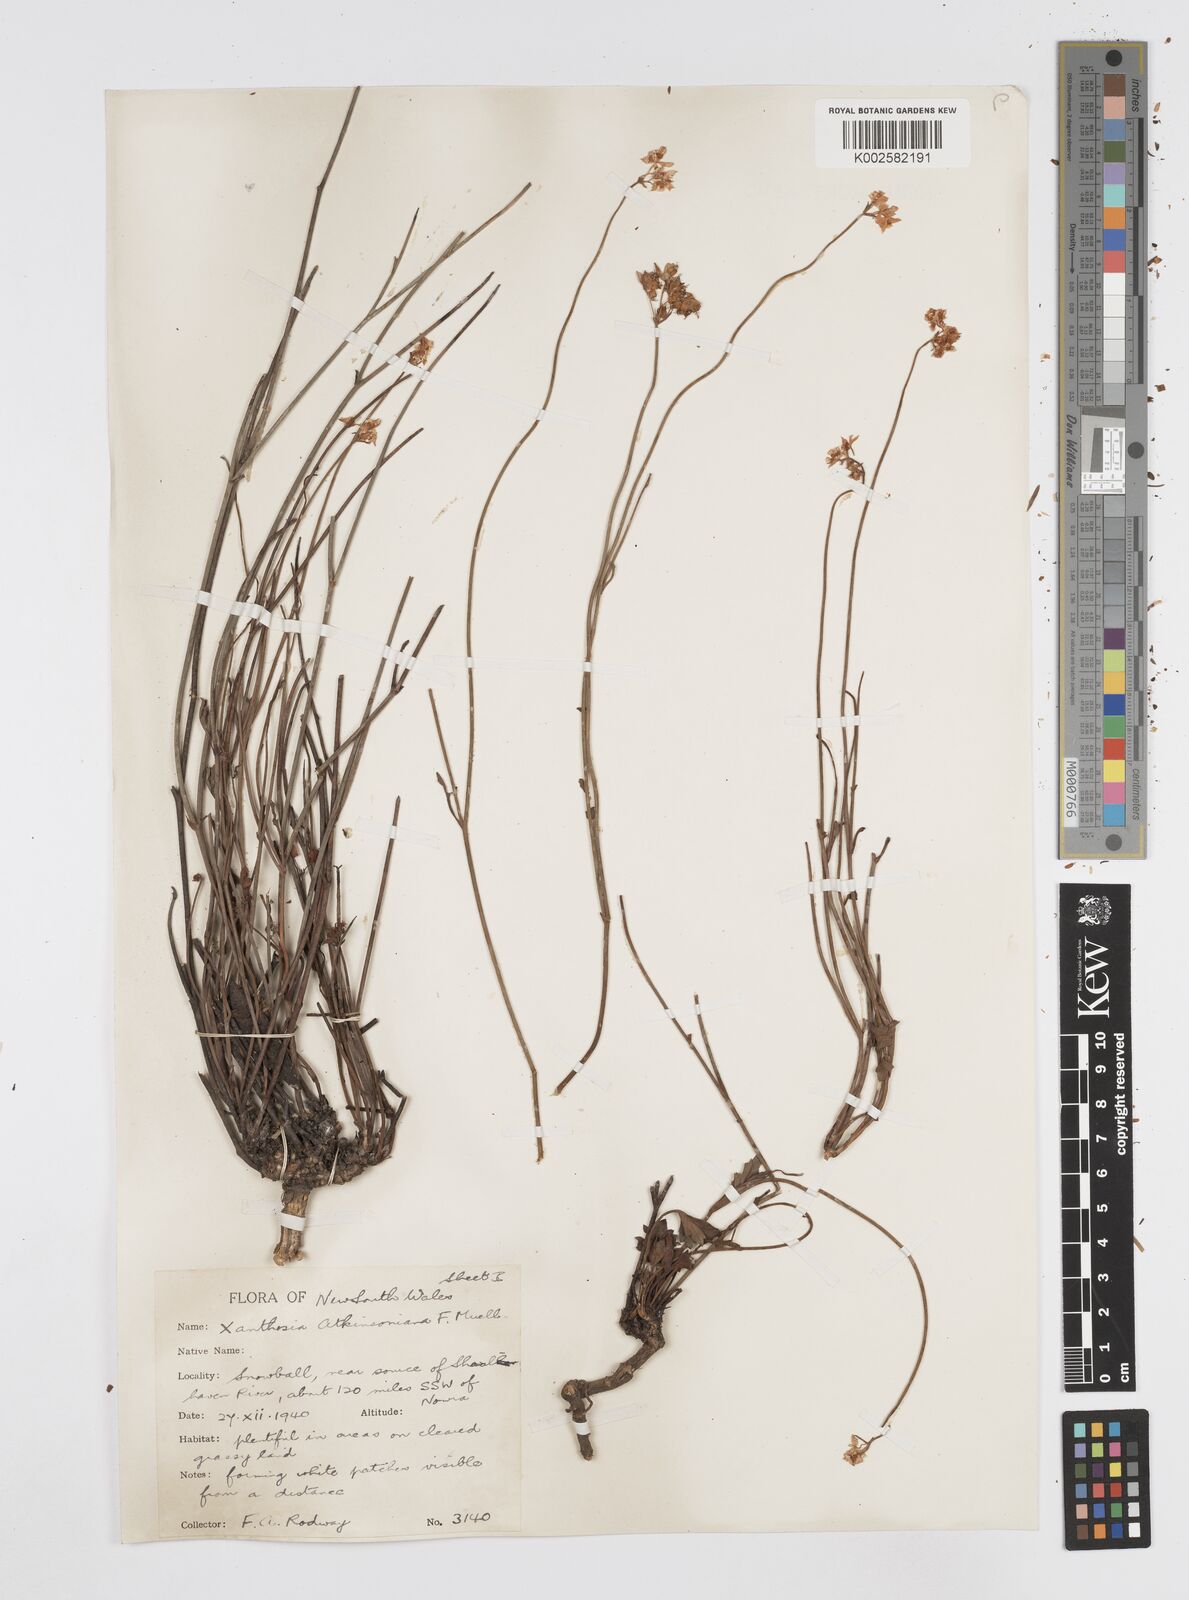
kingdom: Plantae
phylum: Tracheophyta
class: Magnoliopsida
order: Apiales
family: Apiaceae
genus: Xanthosia
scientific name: Xanthosia atkinsoniana
